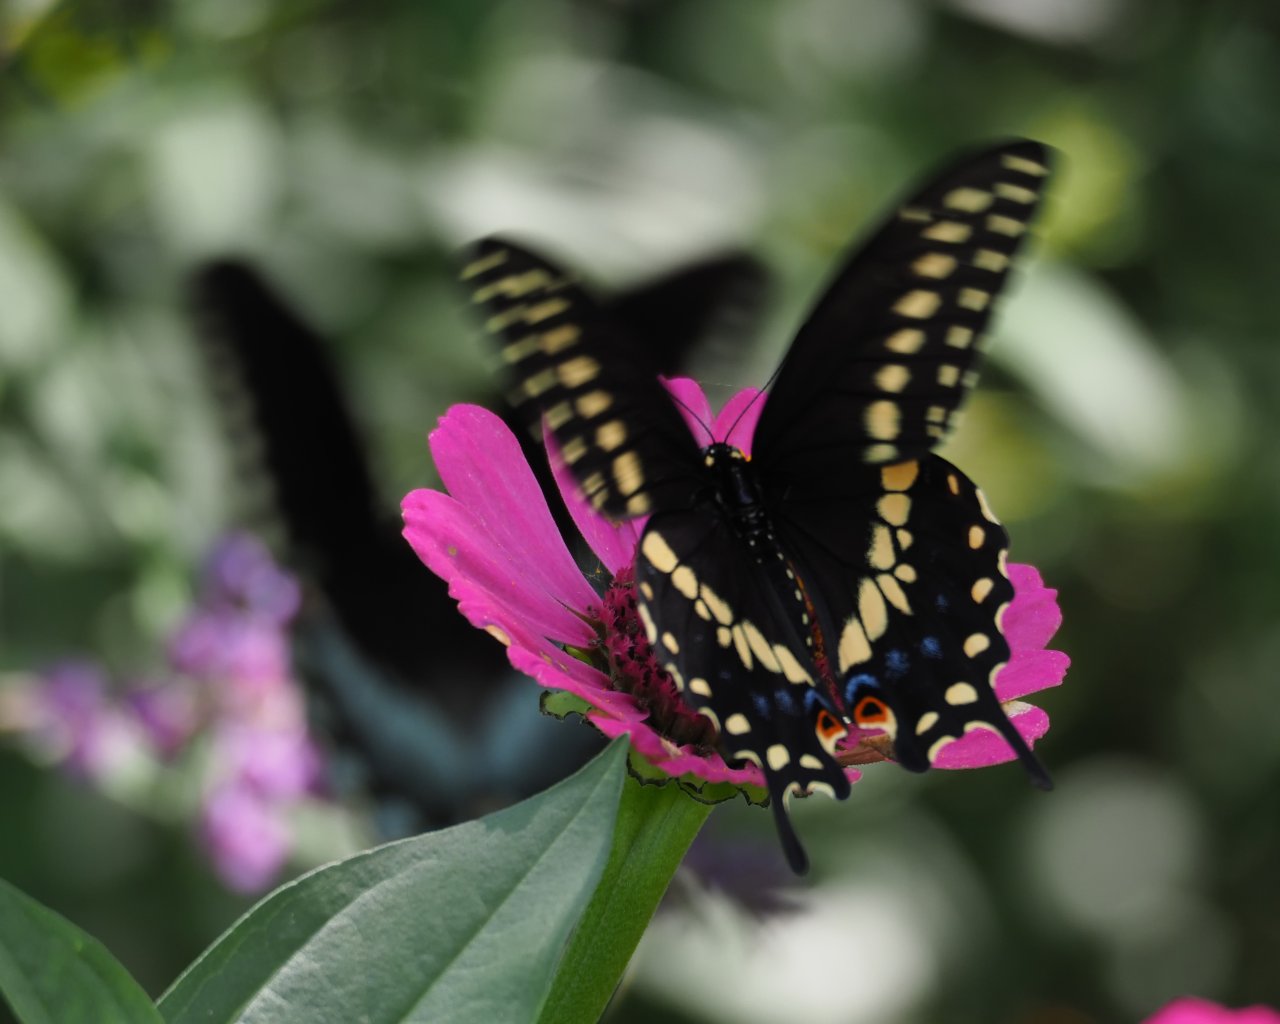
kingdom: Animalia
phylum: Arthropoda
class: Insecta
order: Lepidoptera
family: Papilionidae
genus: Papilio
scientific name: Papilio polyxenes
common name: Black Swallowtail
